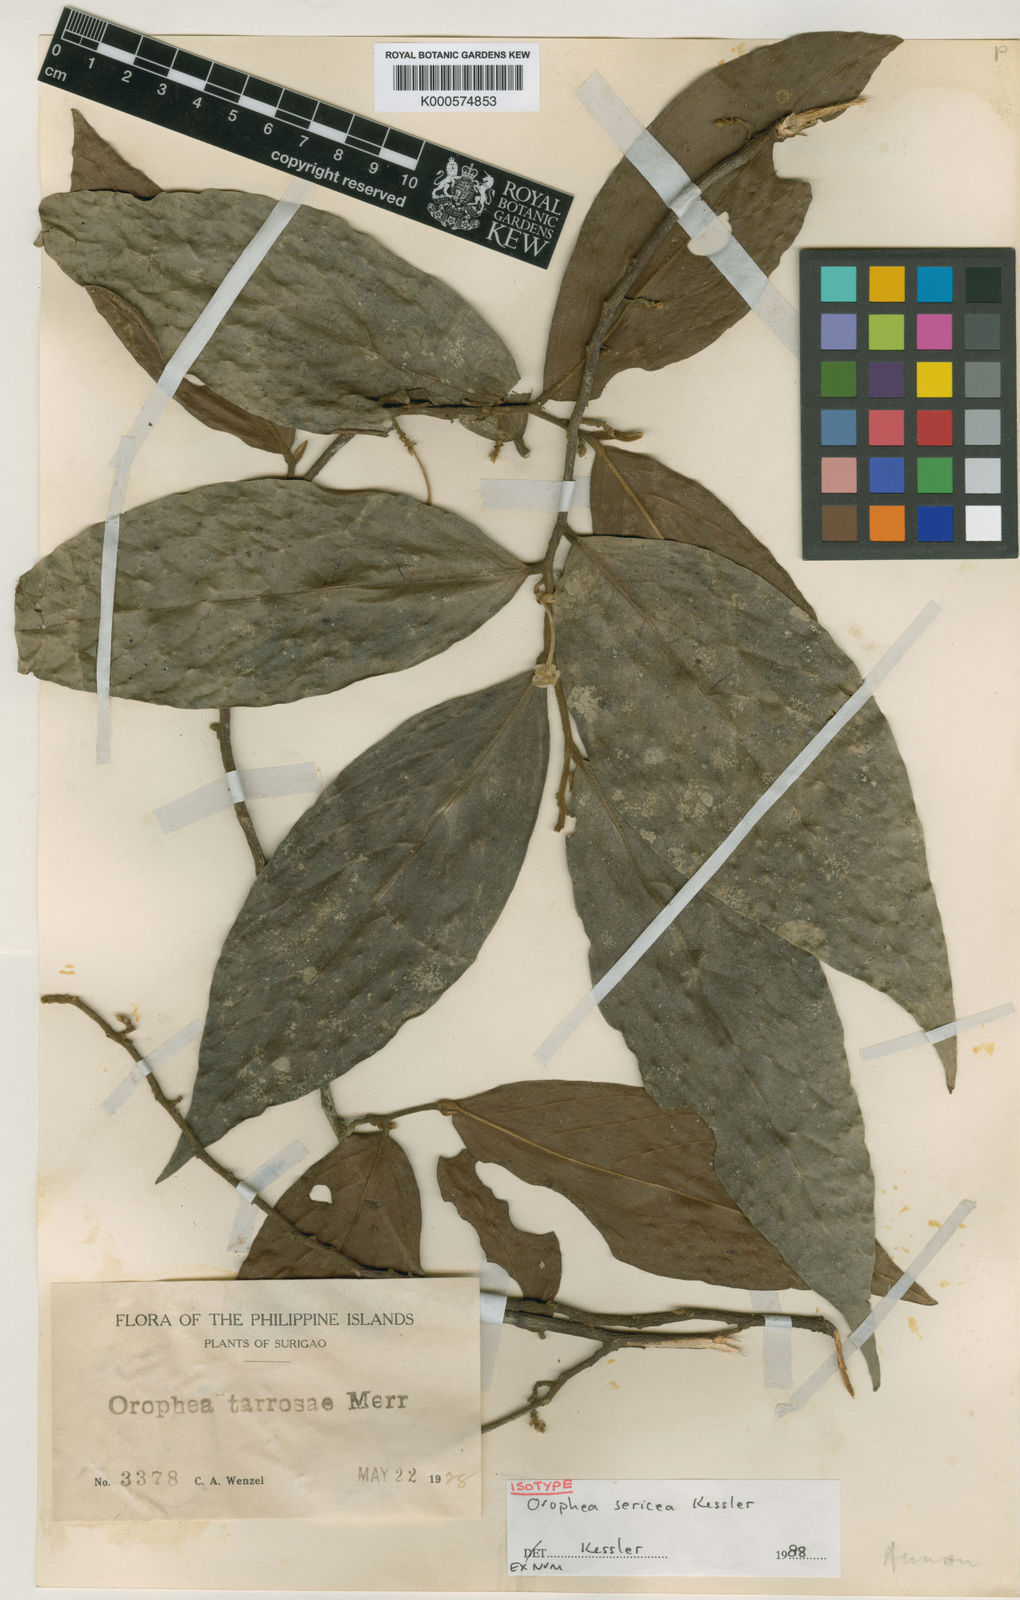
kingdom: Plantae
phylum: Tracheophyta
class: Magnoliopsida
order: Magnoliales
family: Annonaceae
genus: Orophea
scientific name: Orophea sericea
